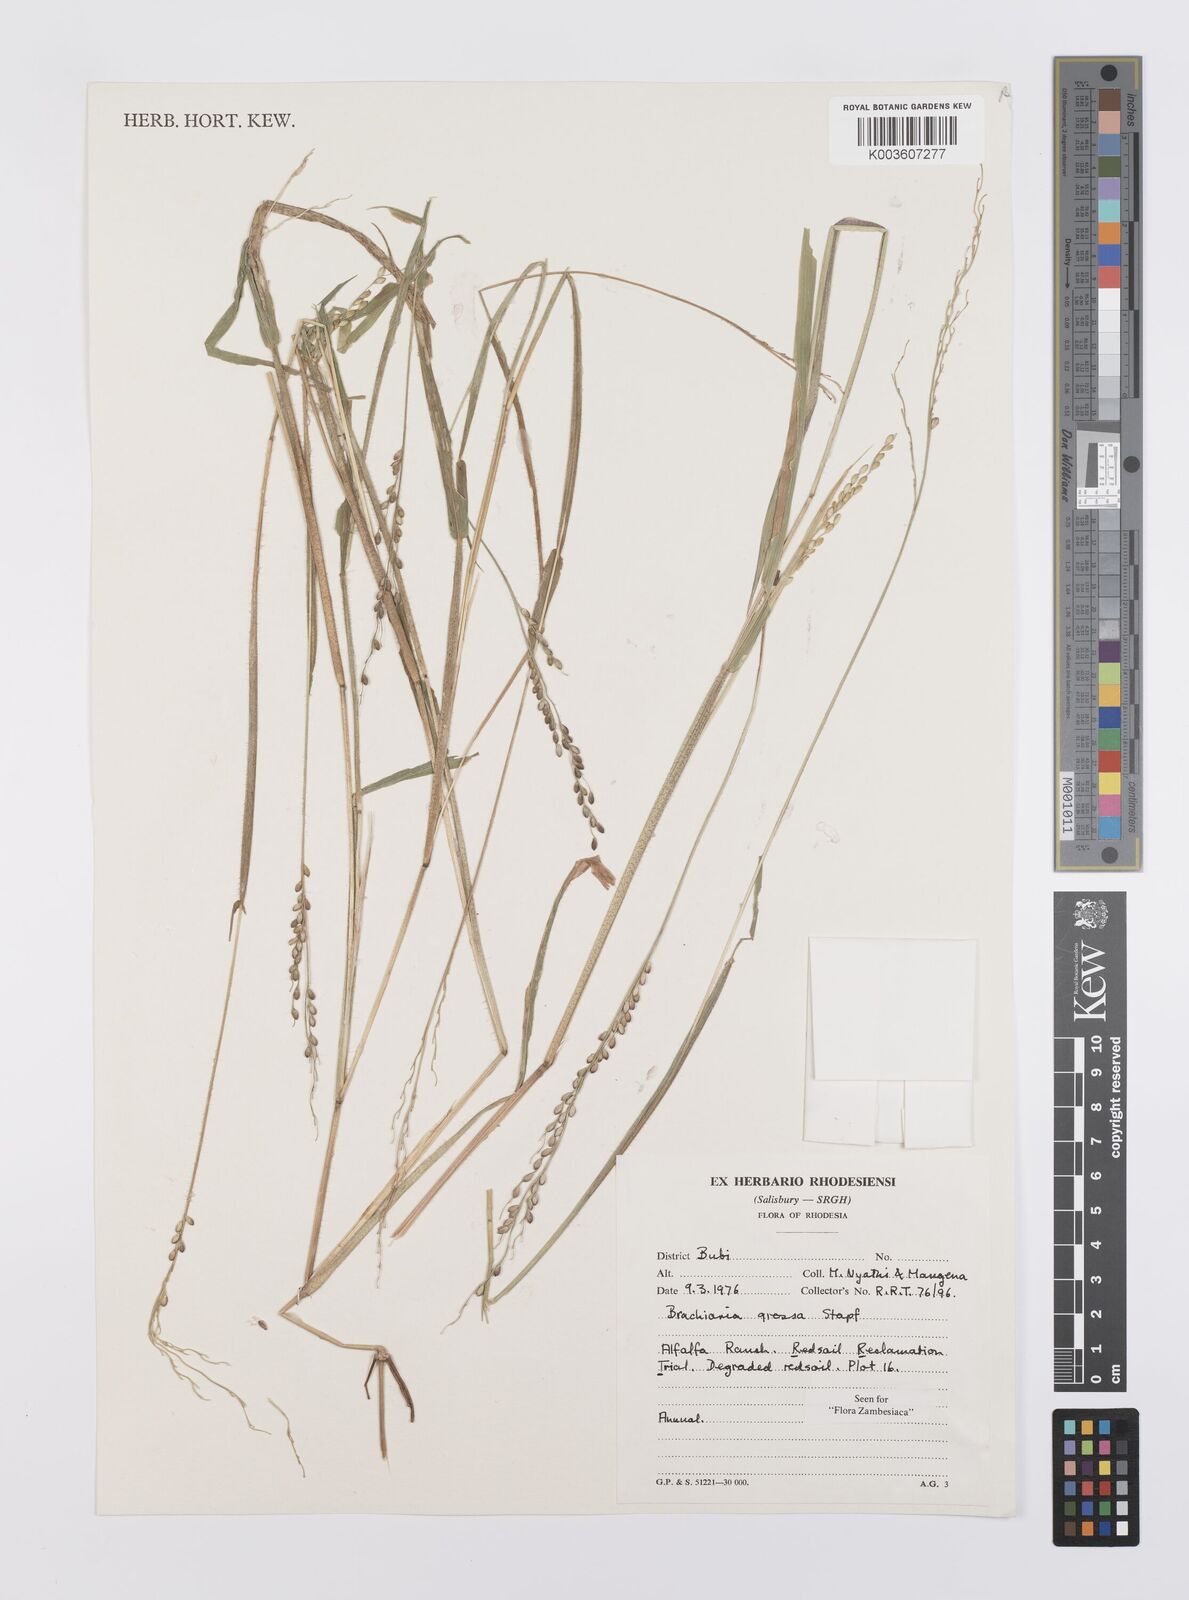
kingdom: Plantae
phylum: Tracheophyta
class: Liliopsida
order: Poales
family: Poaceae
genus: Urochloa
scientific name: Urochloa Brachiaria grossa
